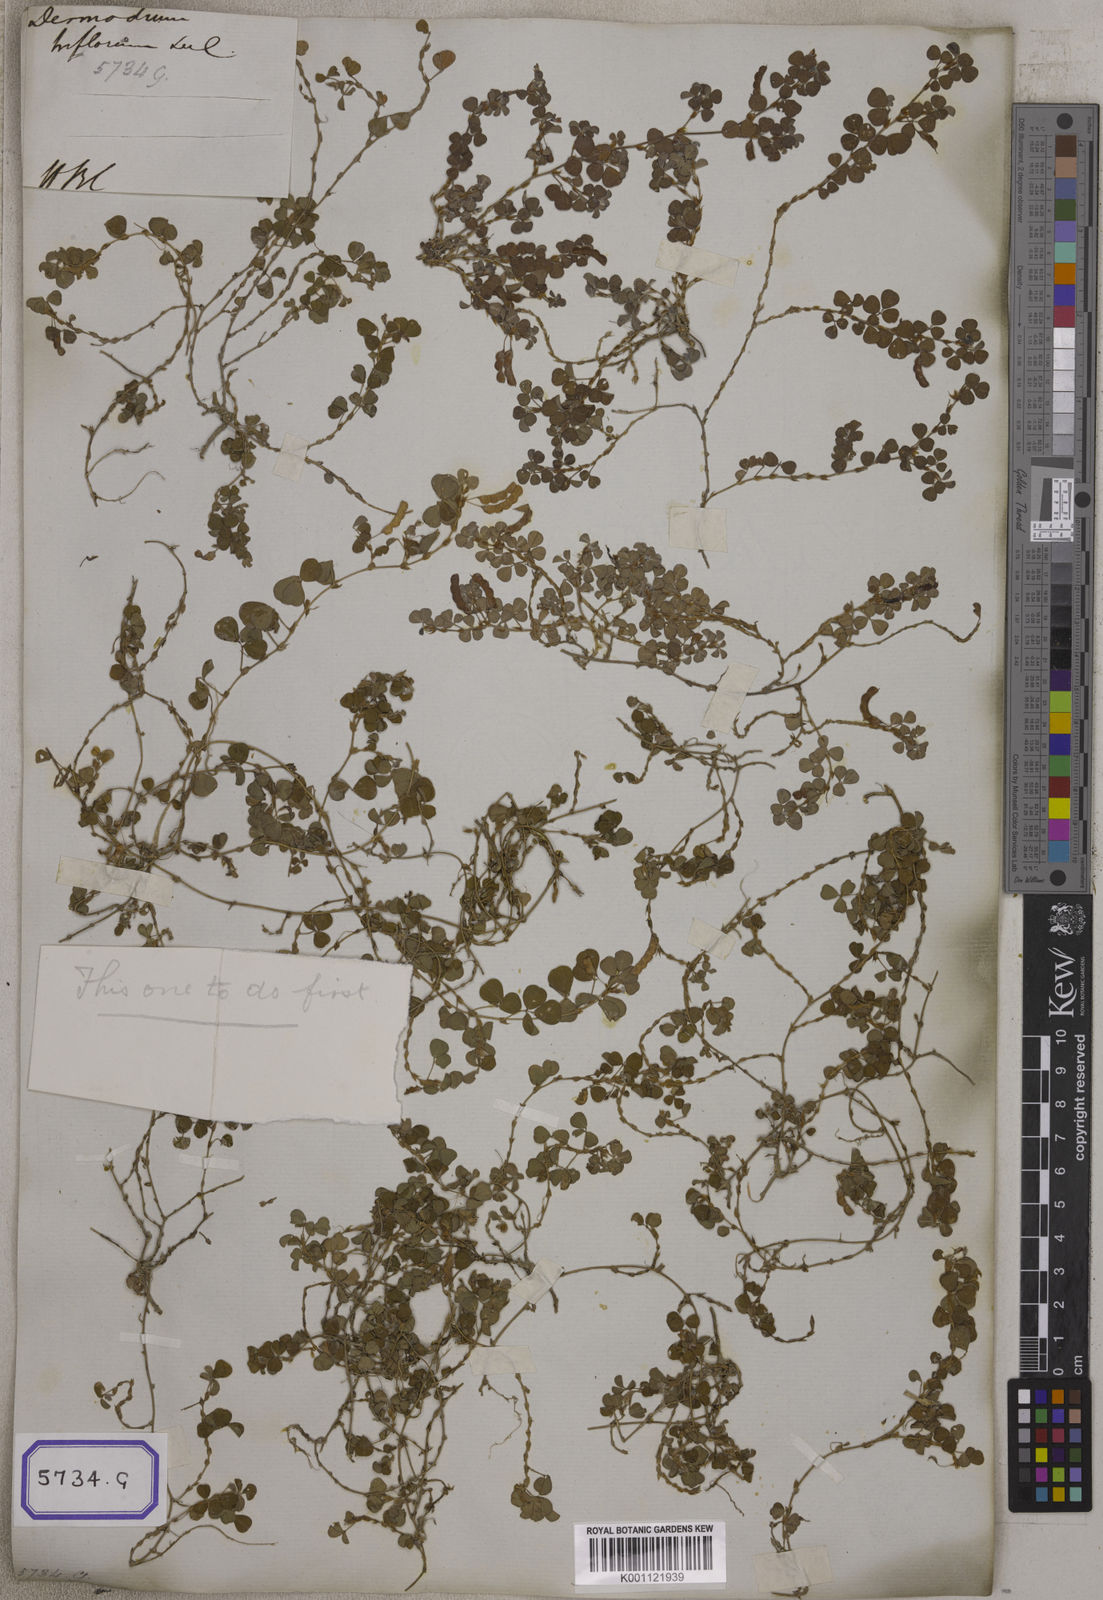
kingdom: Plantae
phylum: Tracheophyta
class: Magnoliopsida
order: Fabales
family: Fabaceae
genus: Desmodium
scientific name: Desmodium
